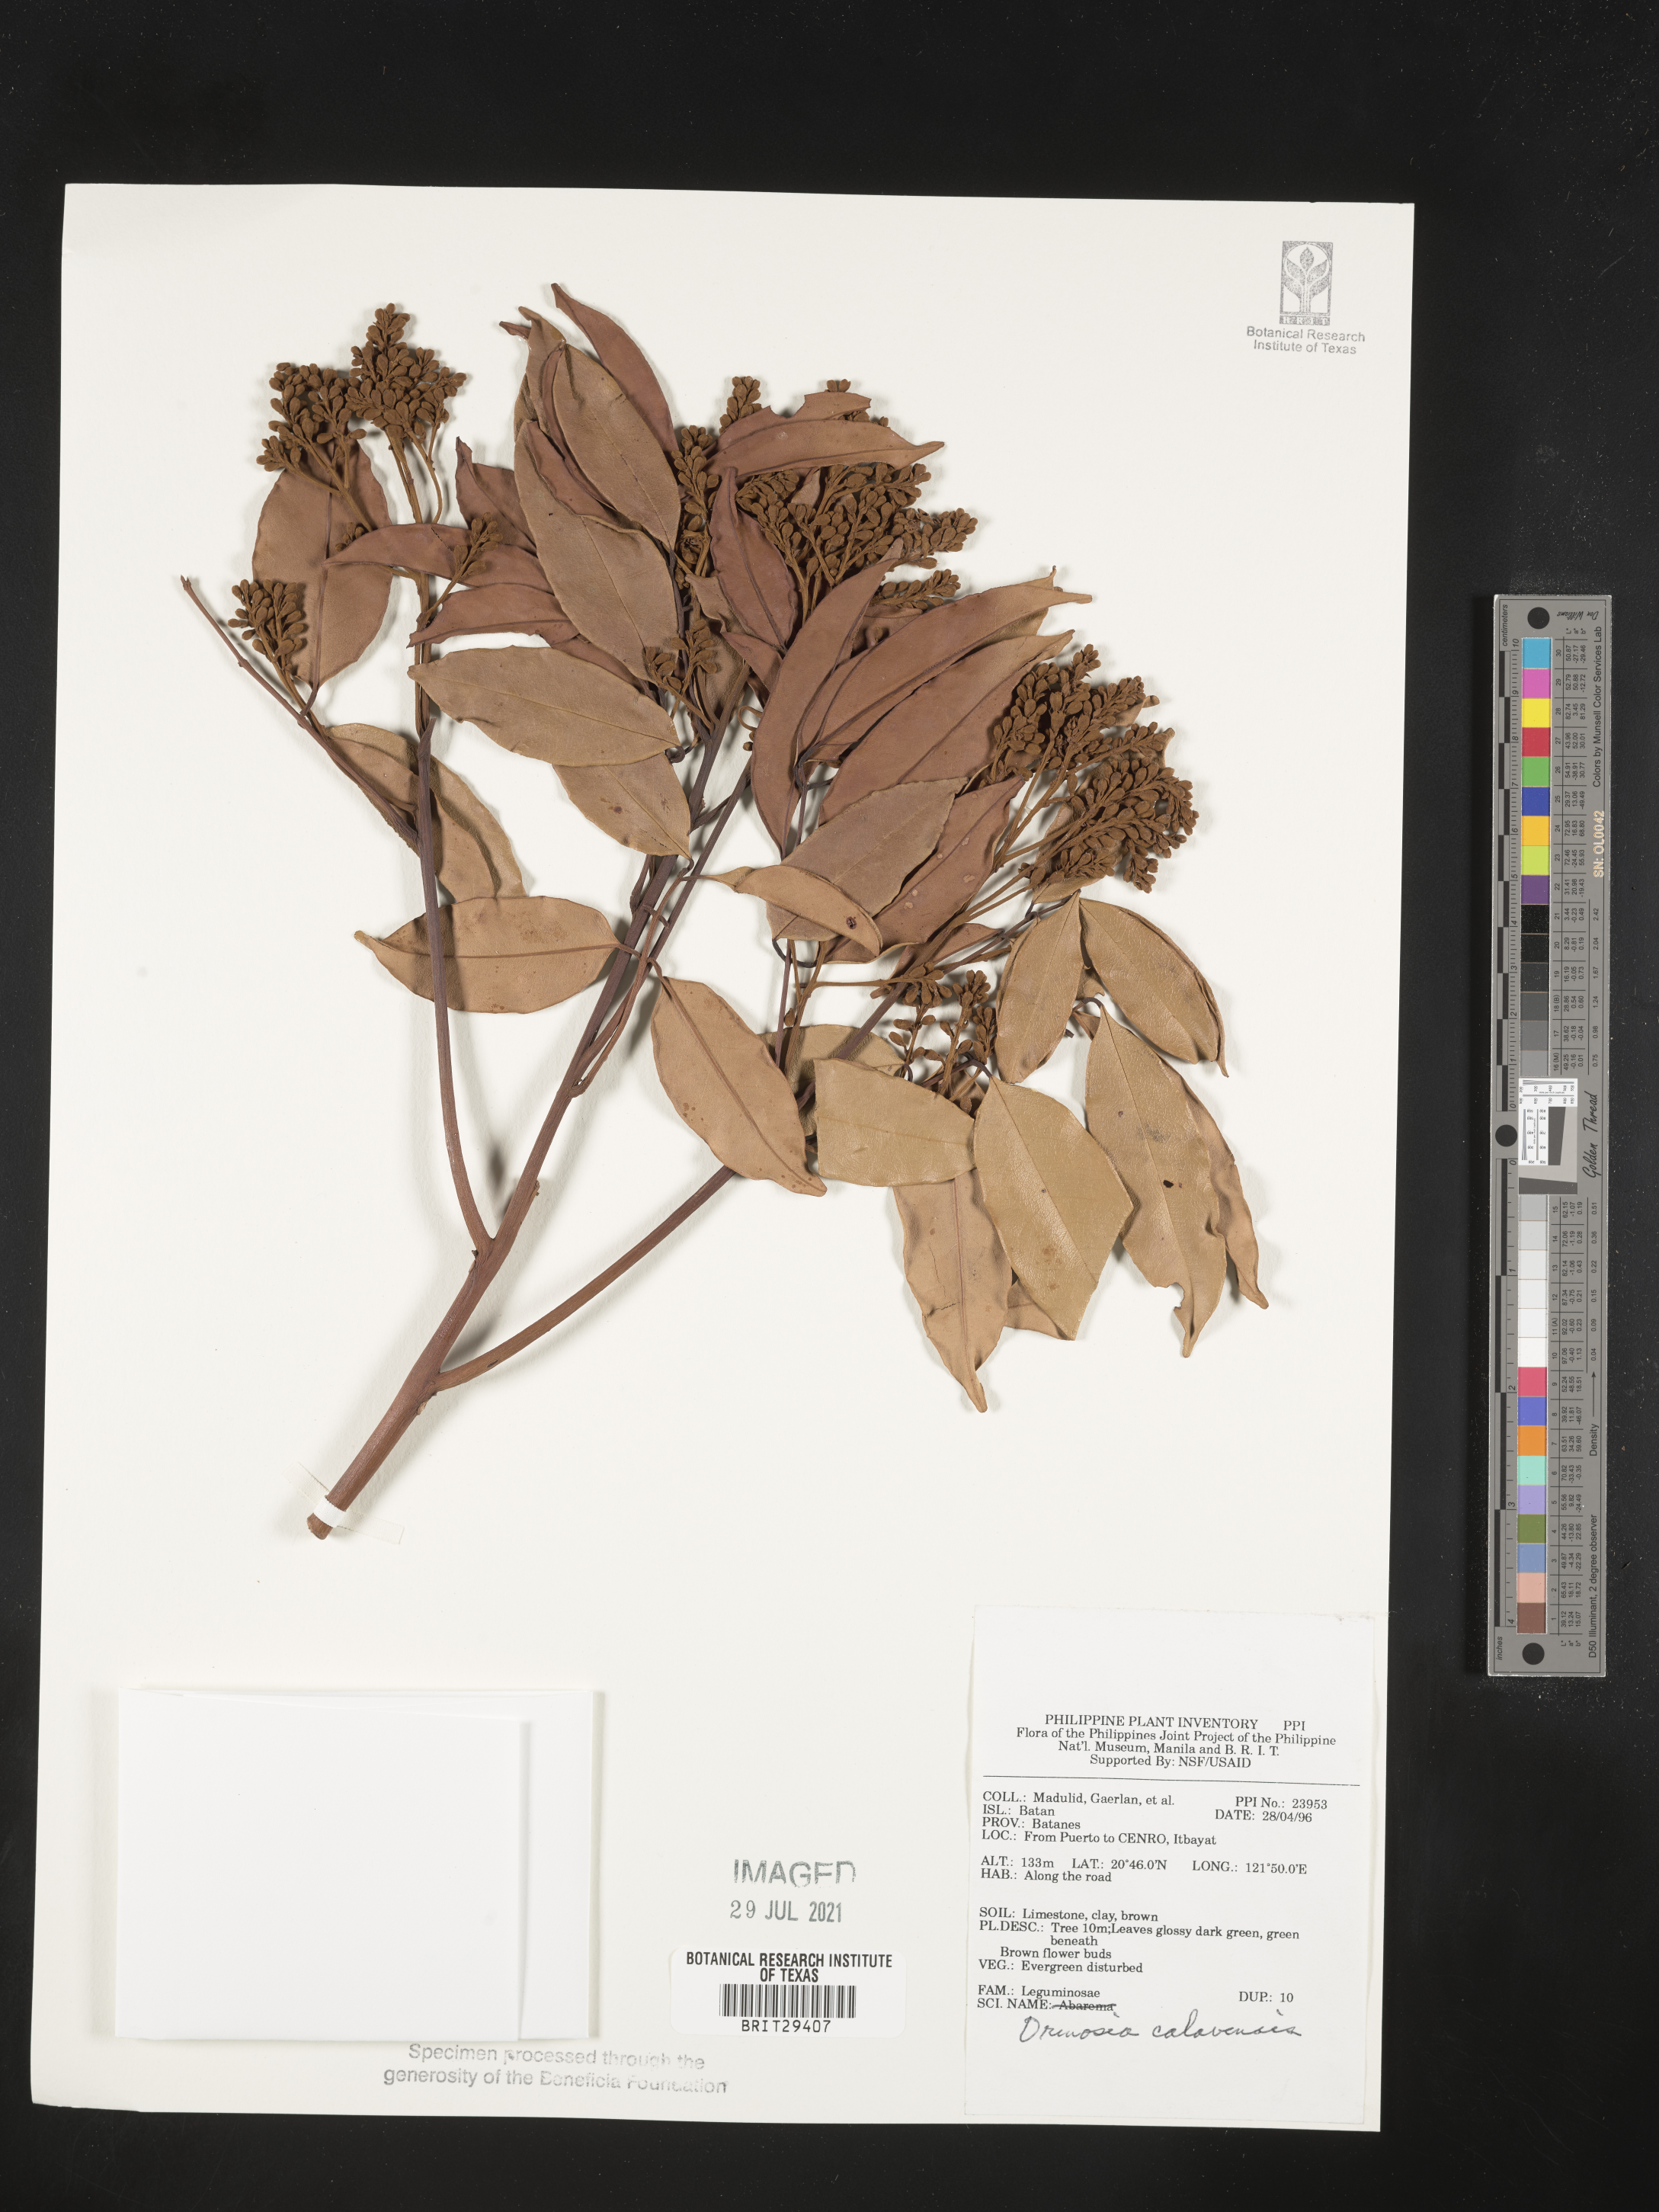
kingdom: Plantae
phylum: Tracheophyta
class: Magnoliopsida
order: Fabales
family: Fabaceae
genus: Ormosia
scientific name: Ormosia calavensis
